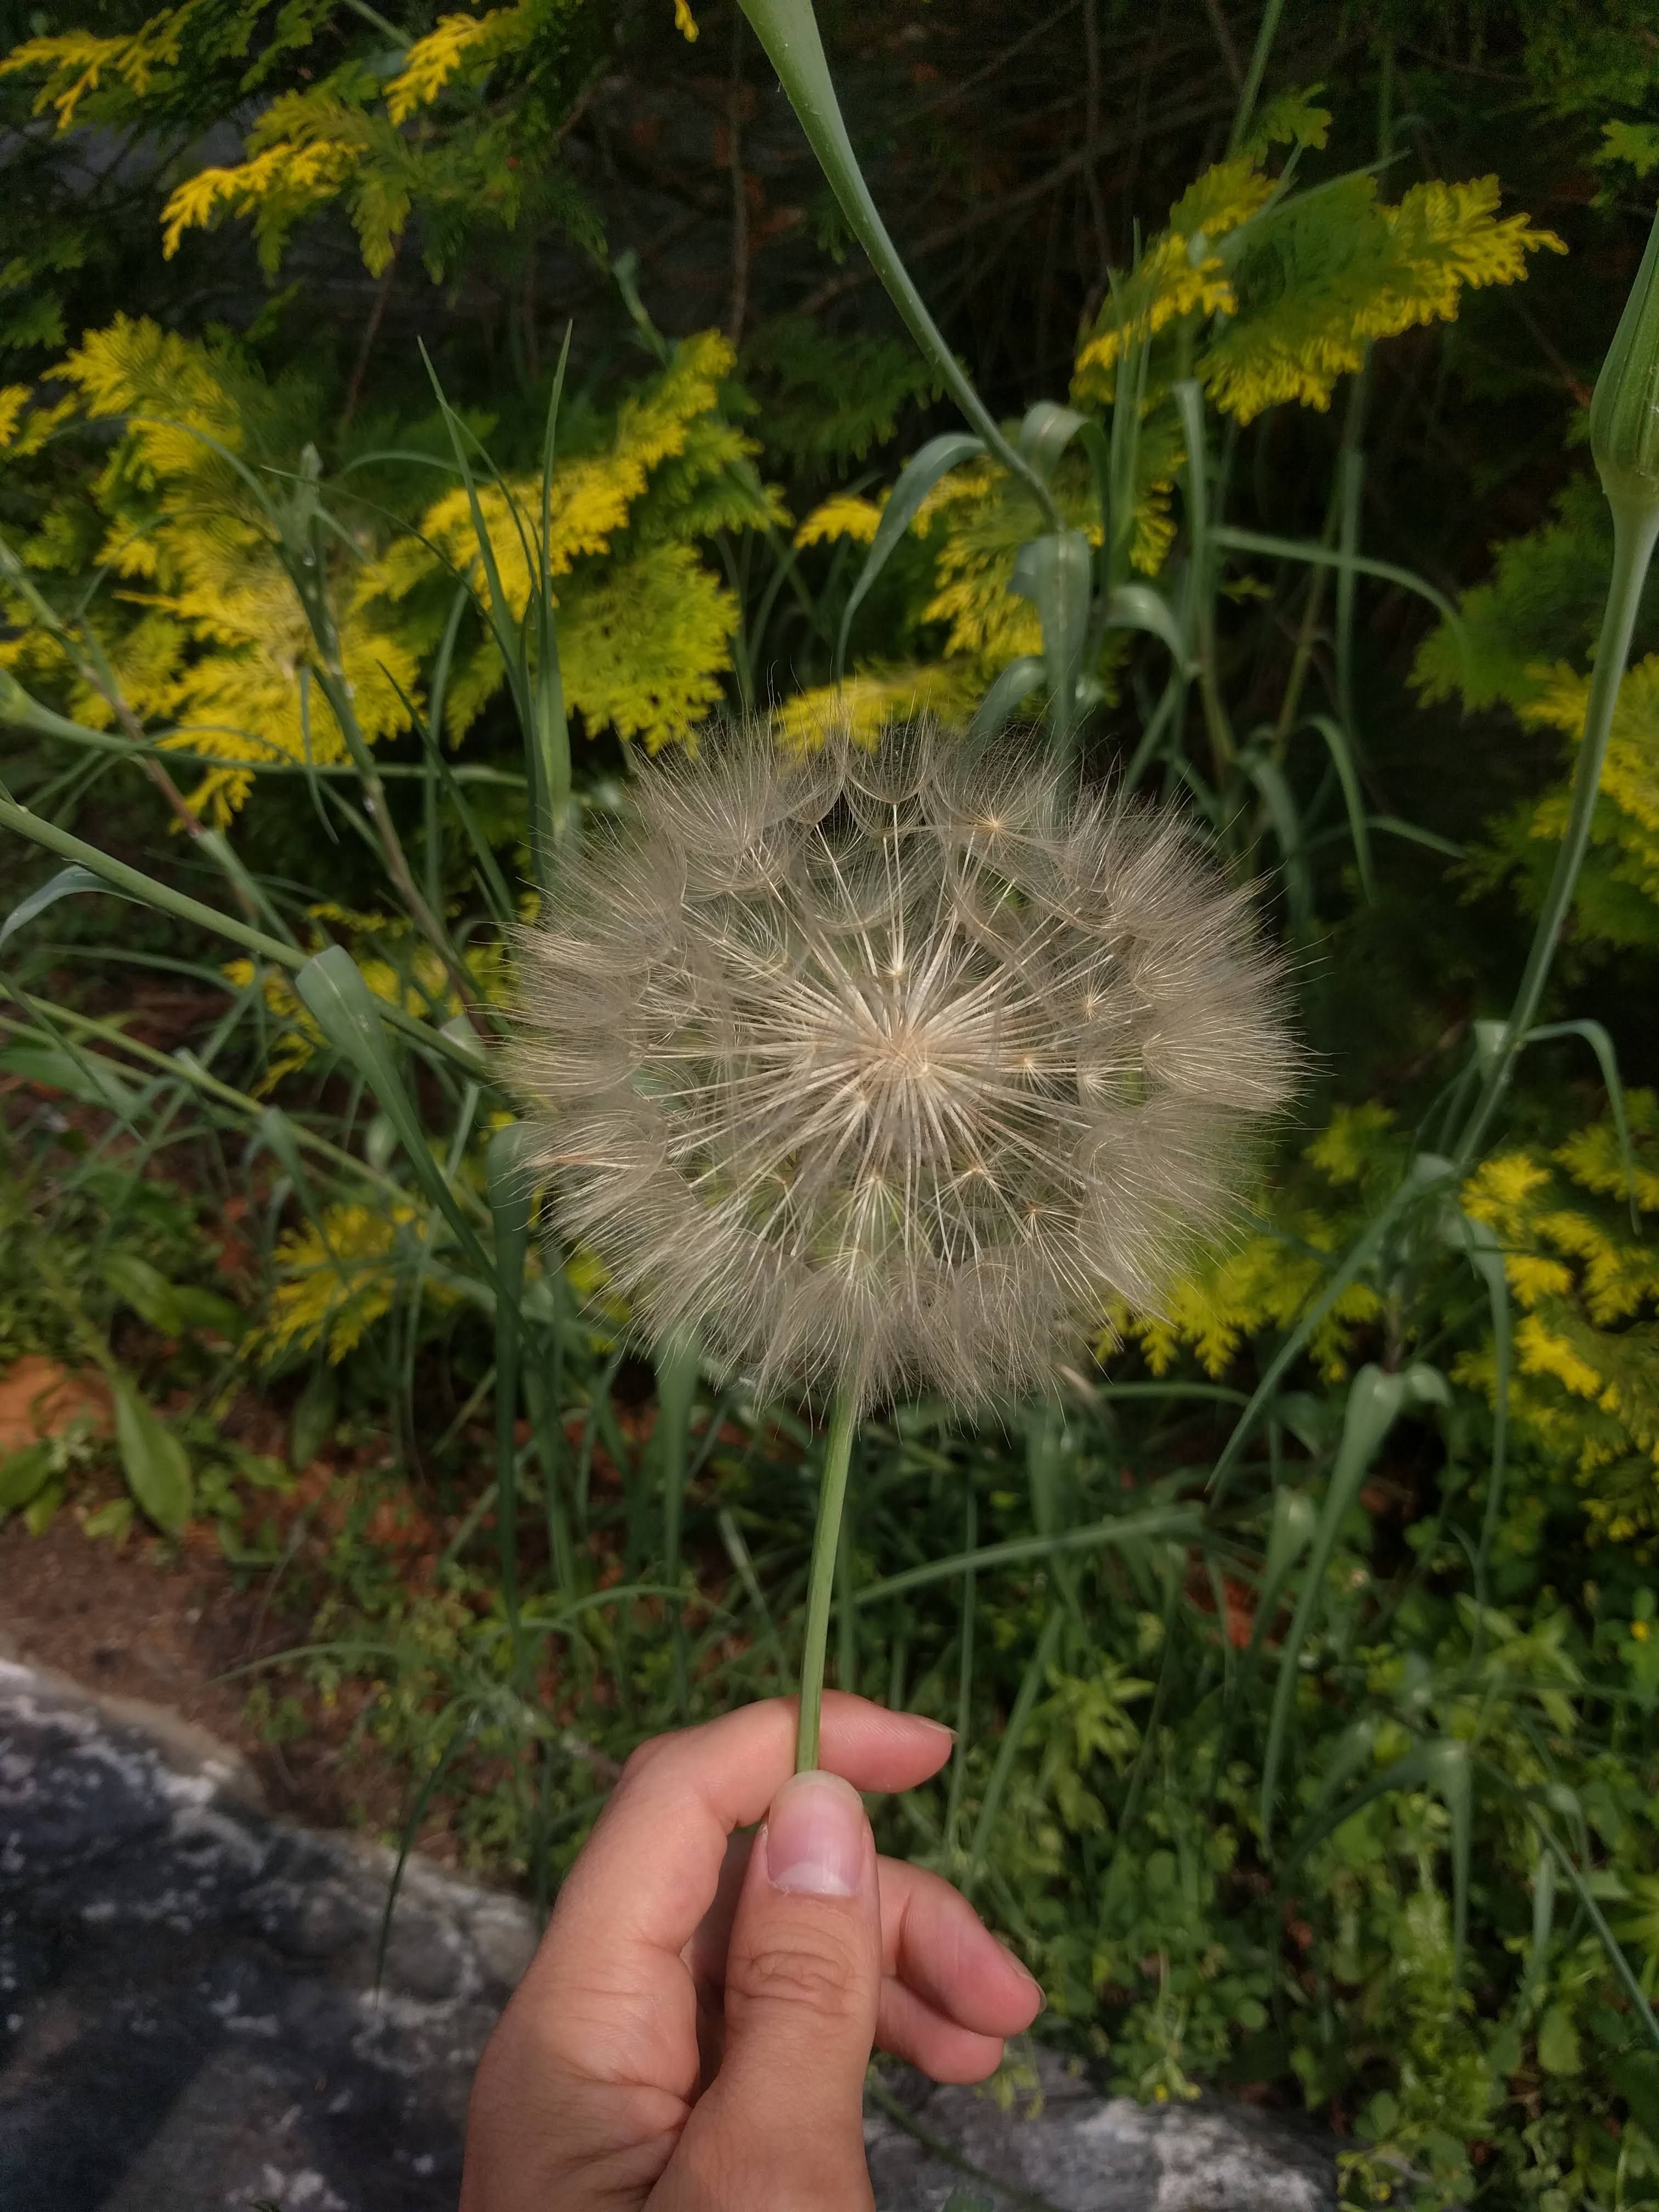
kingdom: Plantae
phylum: Tracheophyta
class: Magnoliopsida
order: Asterales
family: Asteraceae
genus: Tragopogon
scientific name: Tragopogon dubius
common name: Yellow salsify
